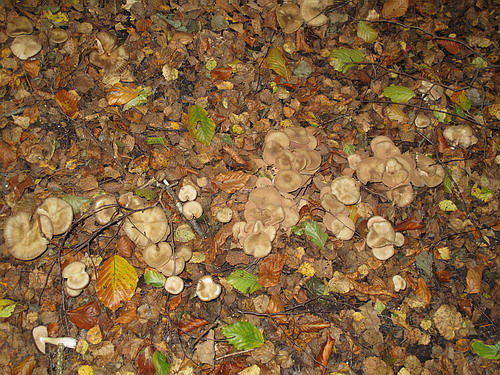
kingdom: Fungi
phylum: Basidiomycota
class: Agaricomycetes
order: Agaricales
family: Entolomataceae
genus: Entoloma
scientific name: Entoloma sericatum
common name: rank rødblad
